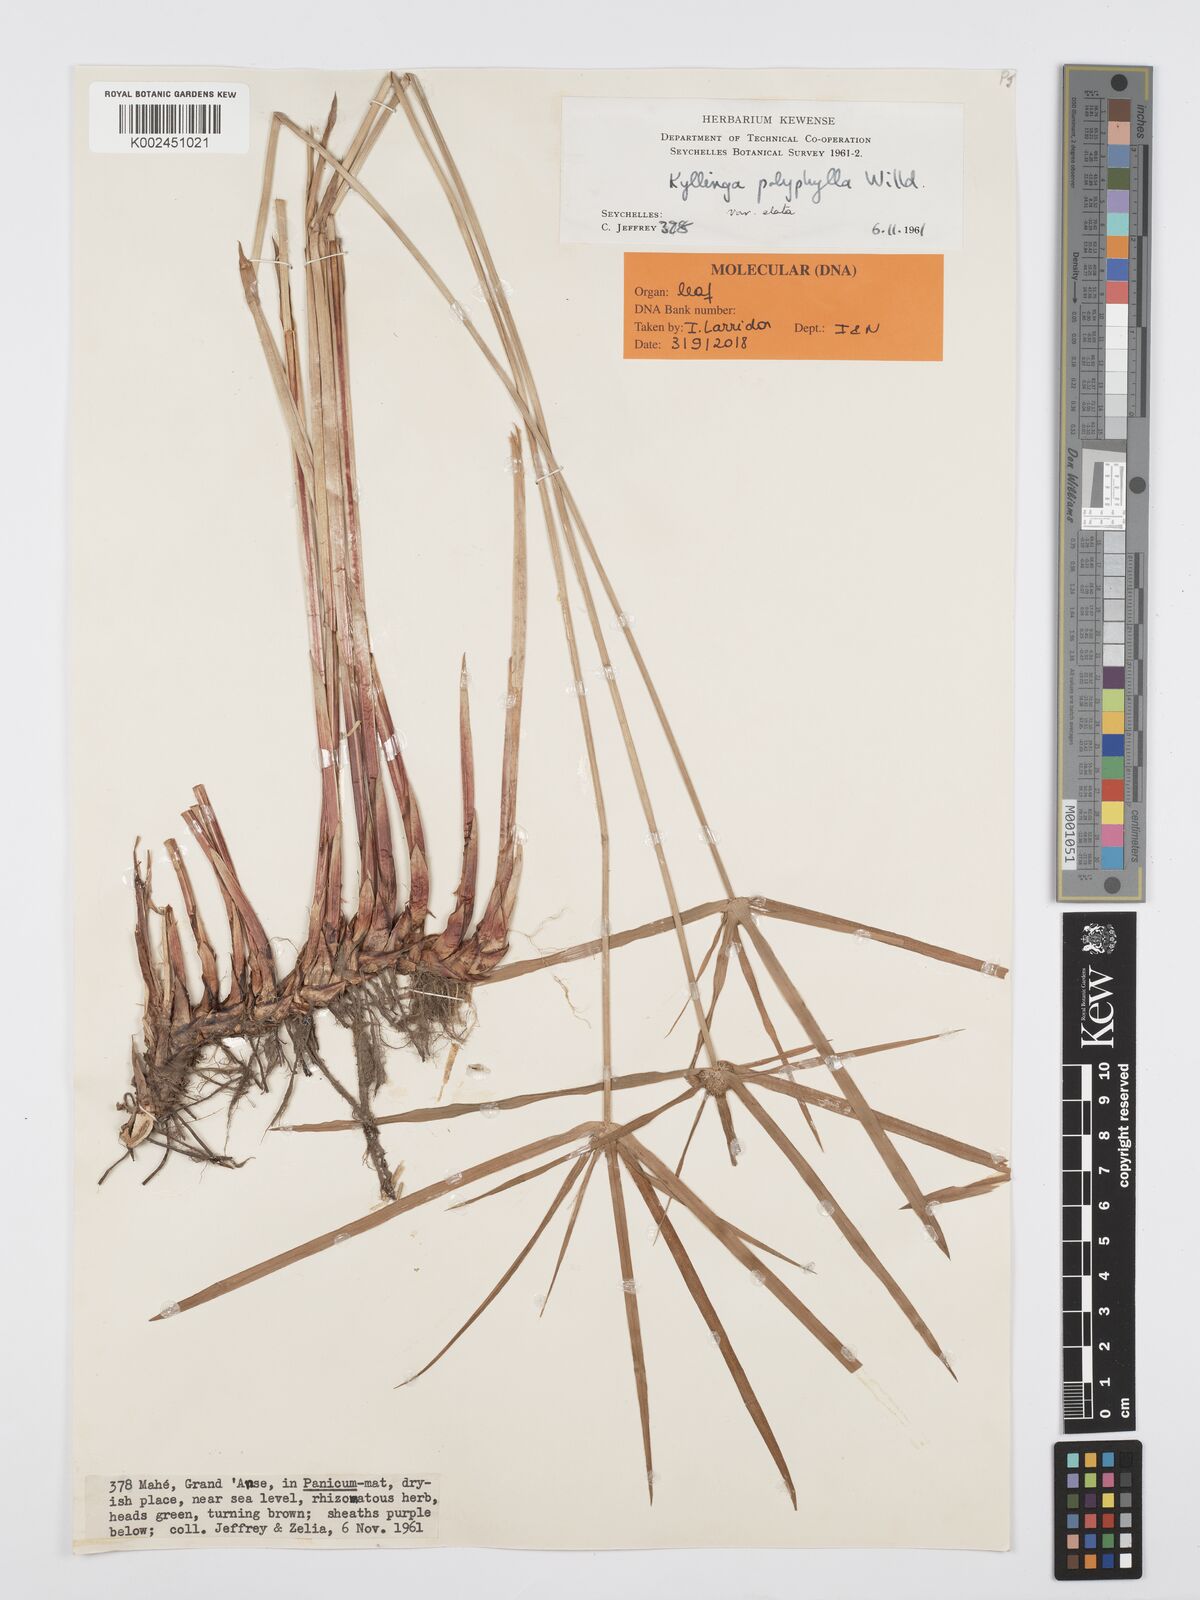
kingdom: Plantae
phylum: Tracheophyta
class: Liliopsida
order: Poales
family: Cyperaceae
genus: Cyperus
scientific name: Cyperus bulbosus
